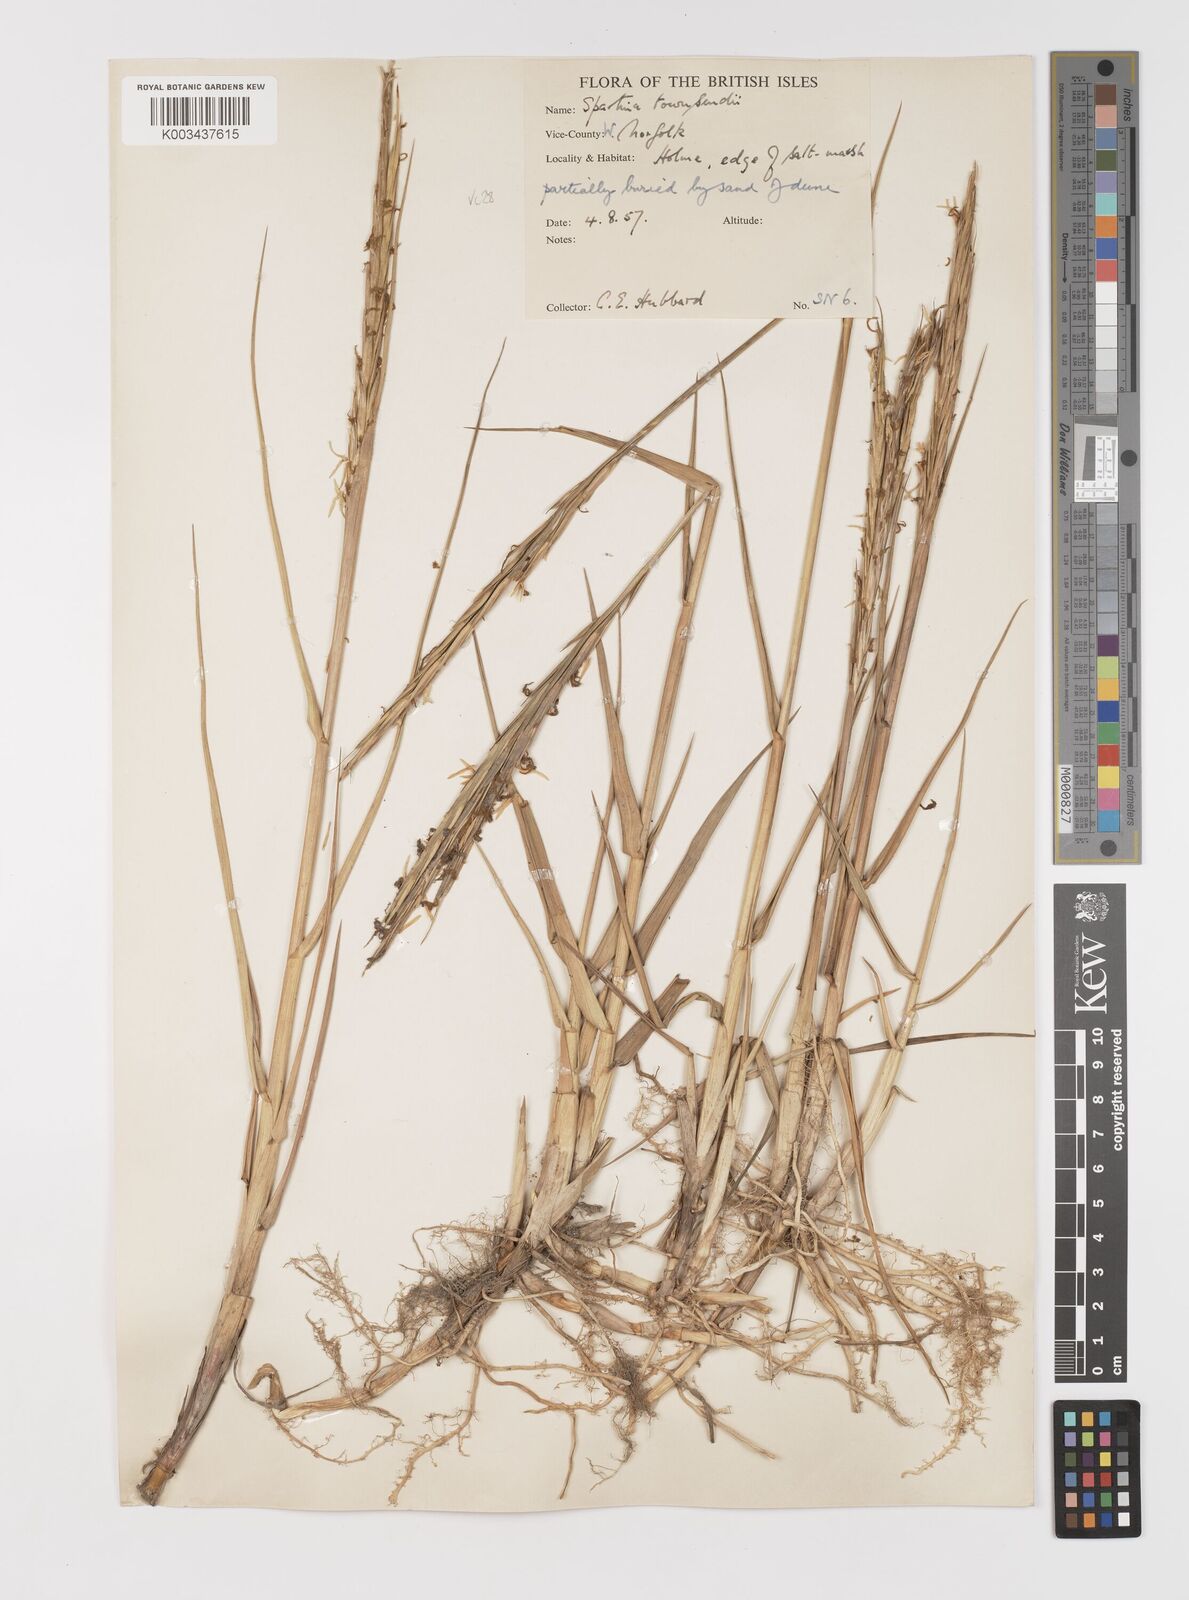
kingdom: Plantae
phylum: Tracheophyta
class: Liliopsida
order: Poales
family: Poaceae
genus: Sporobolus
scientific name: Sporobolus anglicus
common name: English cordgrass
